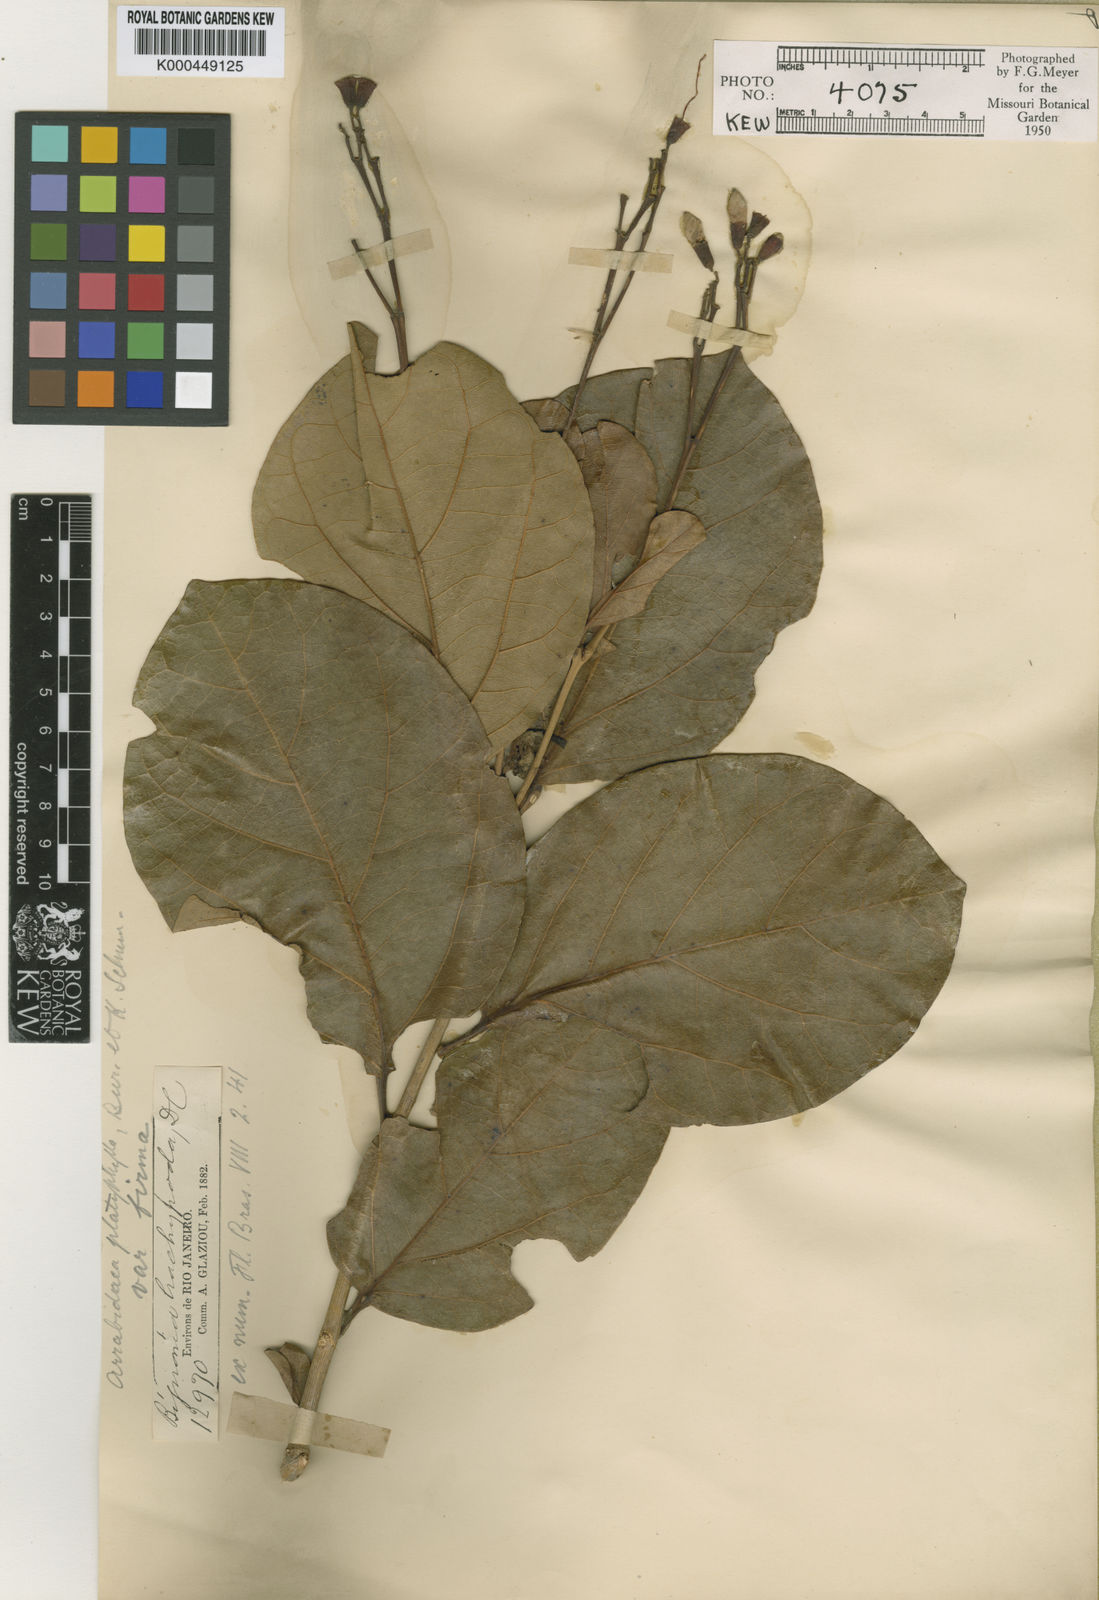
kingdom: Plantae
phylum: Tracheophyta
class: Magnoliopsida
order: Lamiales
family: Bignoniaceae
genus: Fridericia
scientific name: Fridericia platyphylla
